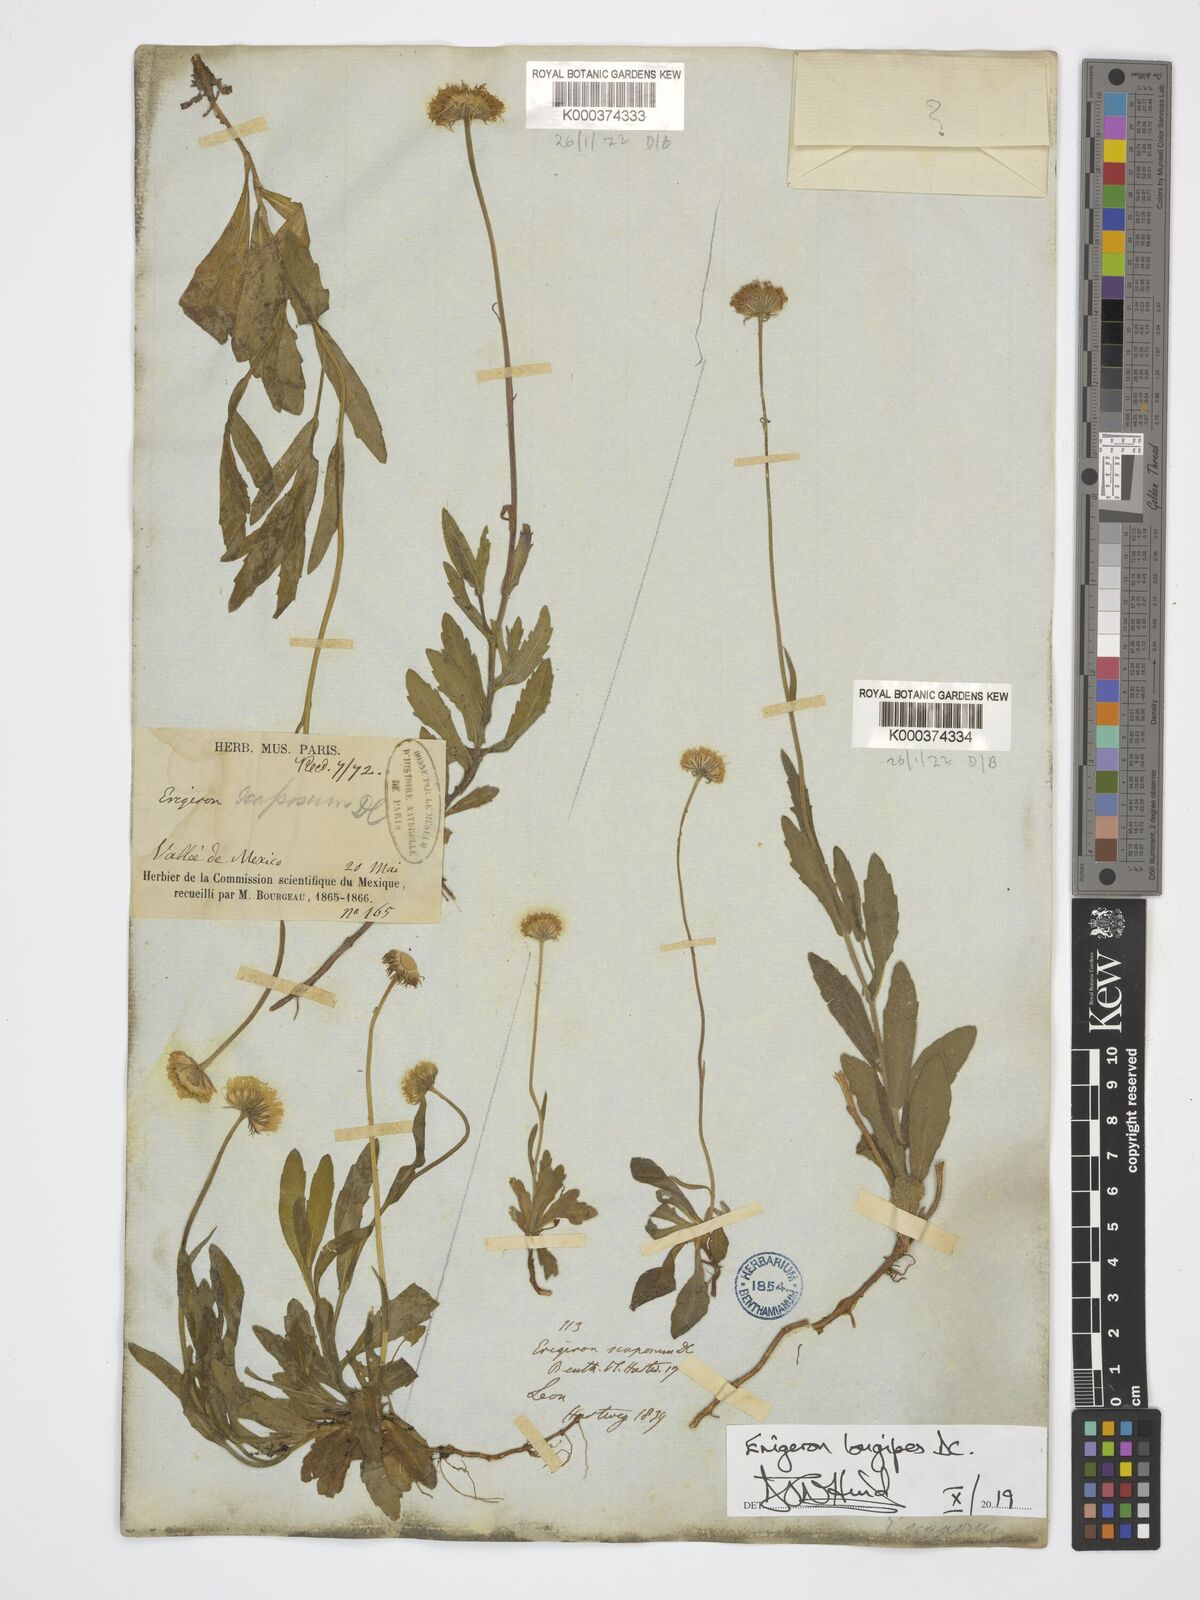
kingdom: Plantae
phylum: Tracheophyta
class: Magnoliopsida
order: Asterales
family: Asteraceae
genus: Erigeron
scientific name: Erigeron longipes
